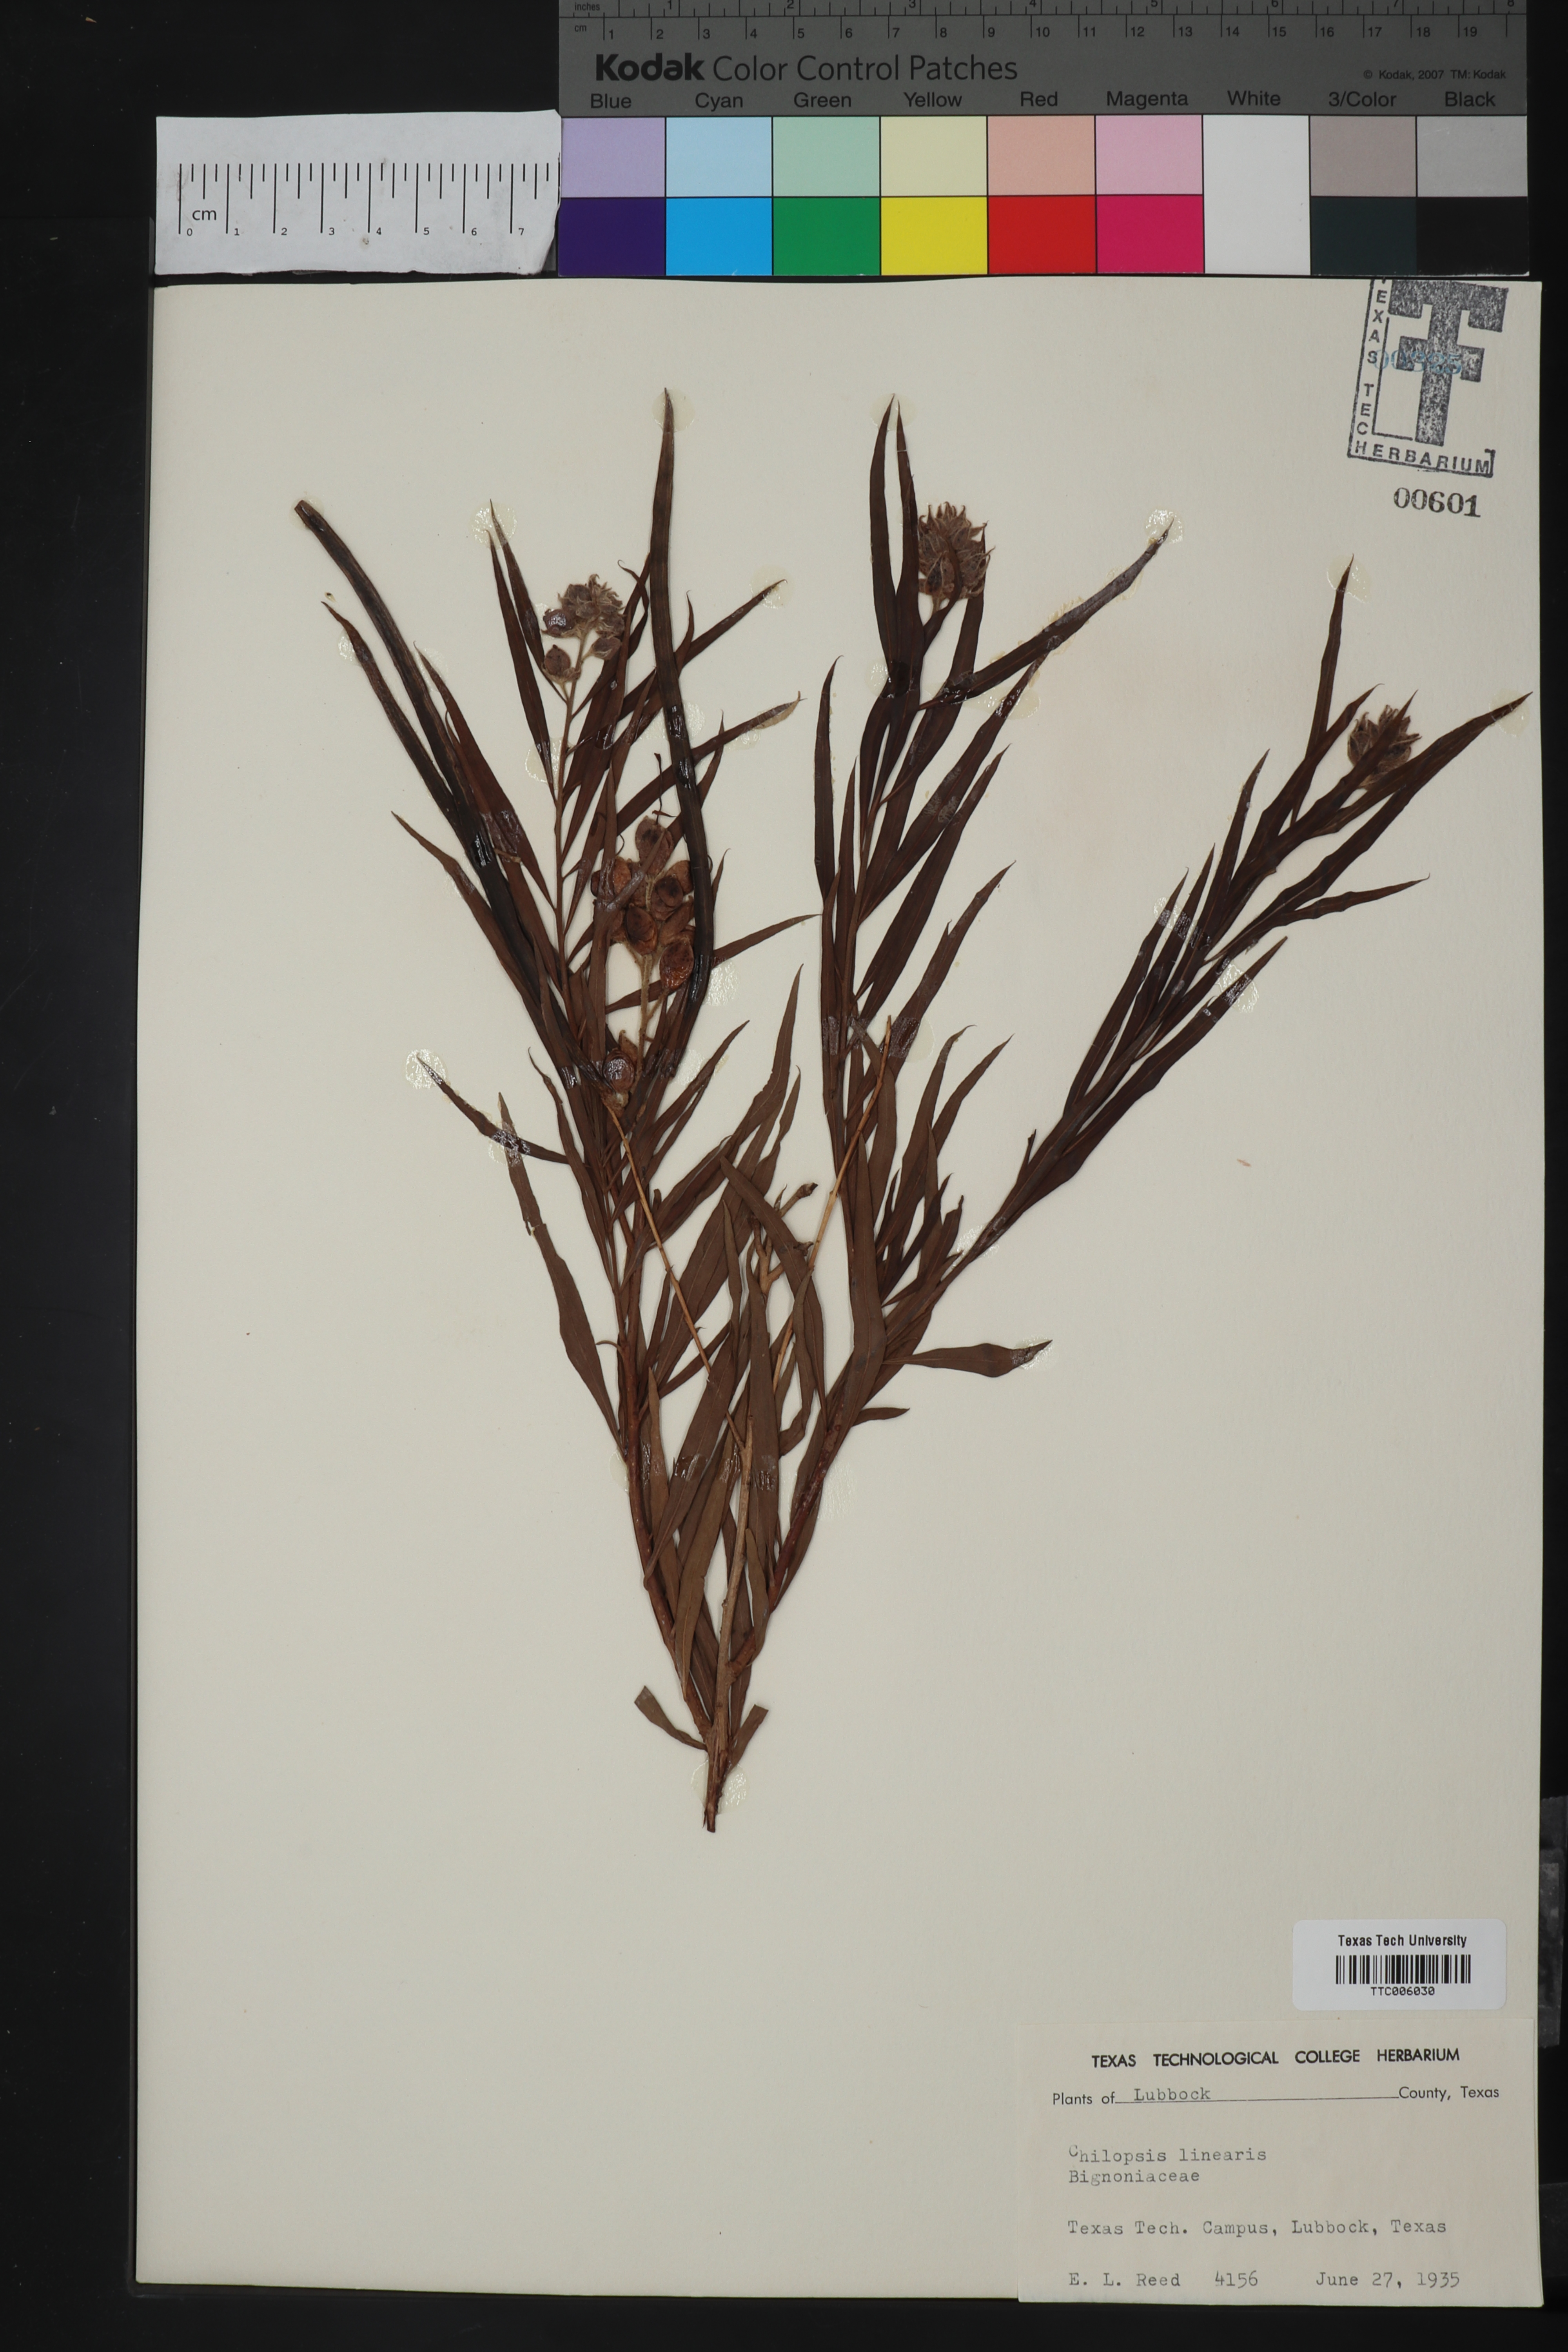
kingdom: Plantae
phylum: Tracheophyta
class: Magnoliopsida
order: Lamiales
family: Bignoniaceae
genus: Chilopsis
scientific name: Chilopsis linearis
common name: Desert-willow
